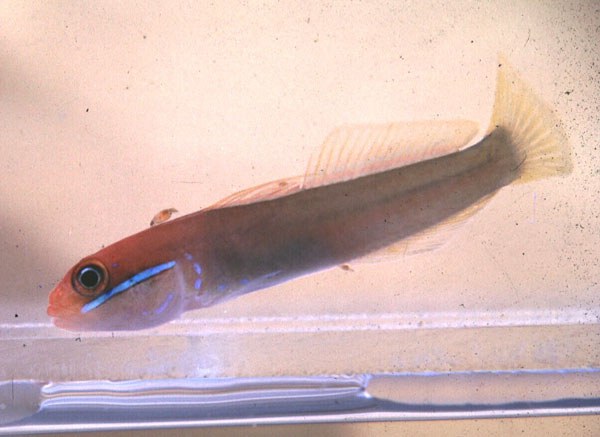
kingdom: Animalia
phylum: Chordata
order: Perciformes
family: Gobiidae
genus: Valenciennea
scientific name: Valenciennea strigata
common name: Blueband goby
